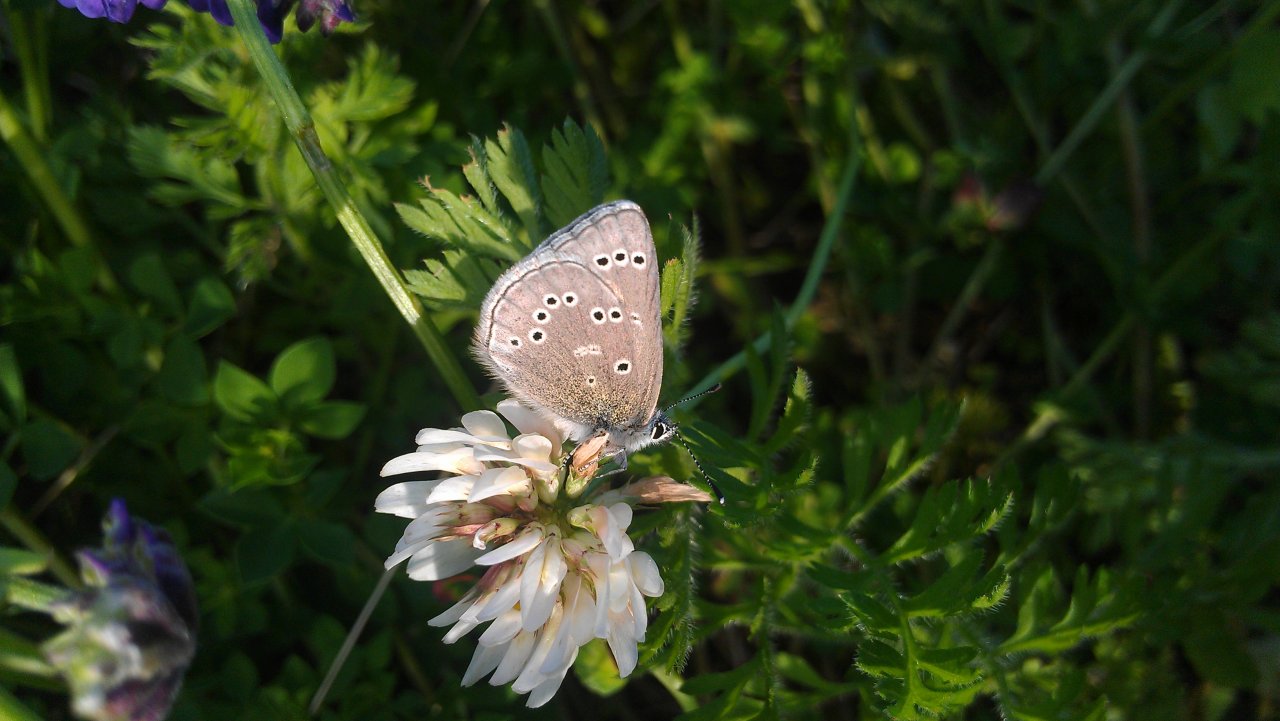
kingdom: Animalia
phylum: Arthropoda
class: Insecta
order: Lepidoptera
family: Lycaenidae
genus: Glaucopsyche
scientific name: Glaucopsyche lygdamus
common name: Silvery Blue
